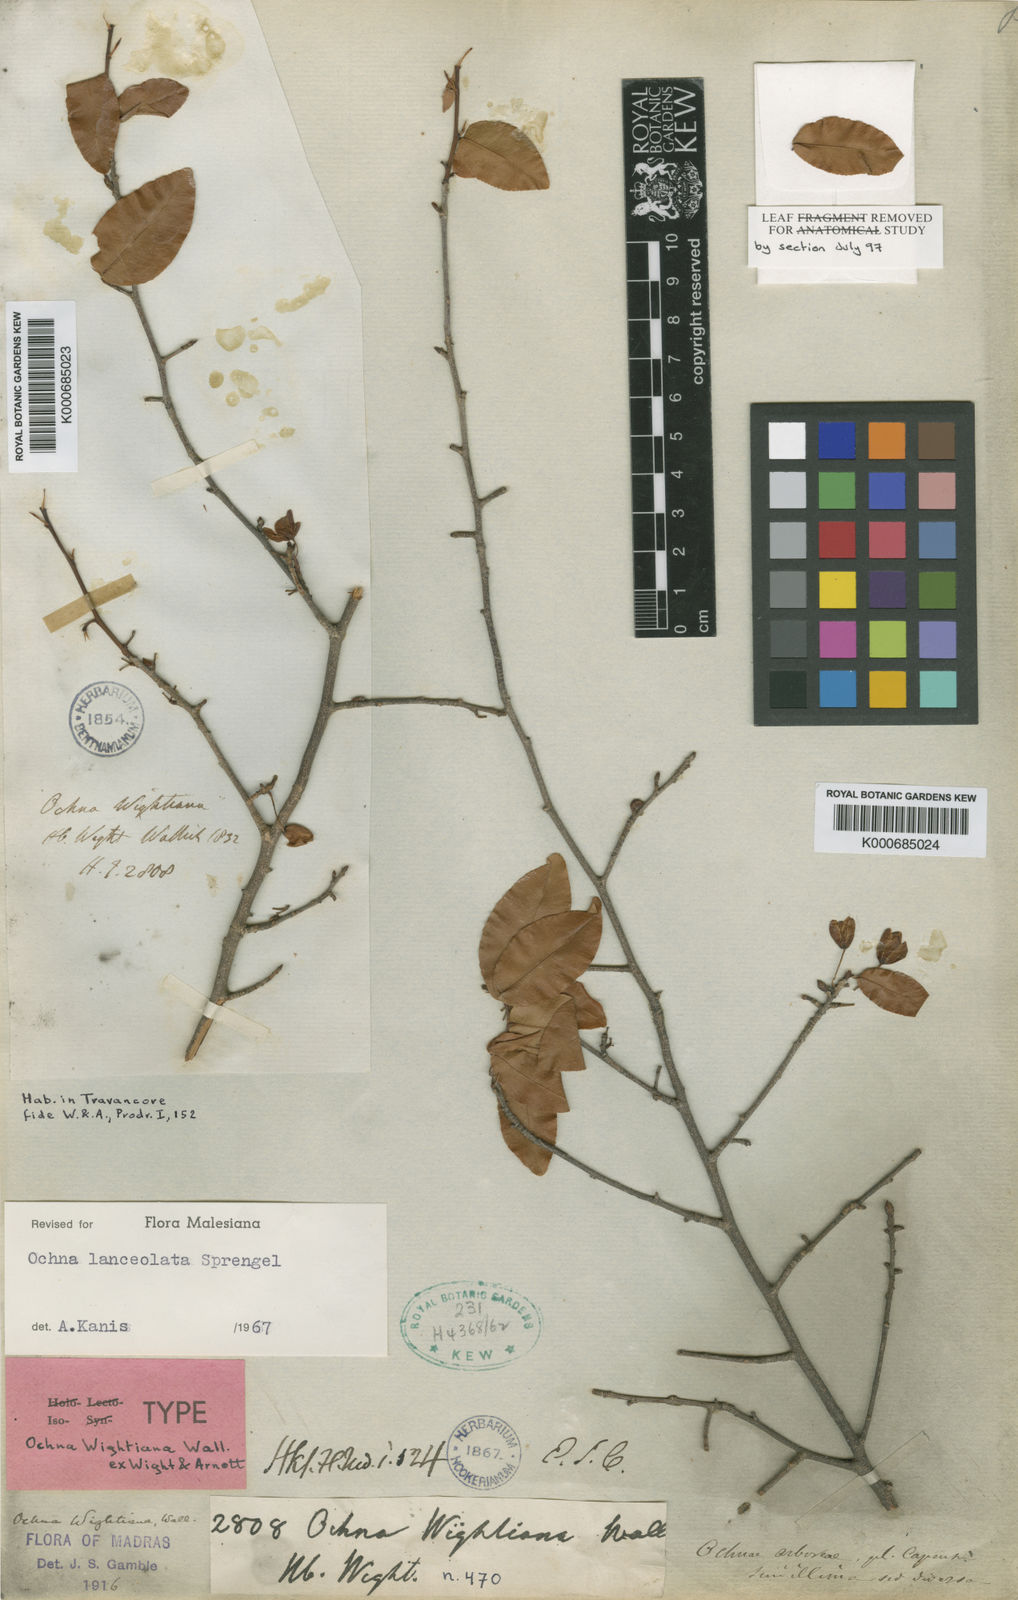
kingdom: Plantae
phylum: Tracheophyta
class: Magnoliopsida
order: Malpighiales
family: Ochnaceae
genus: Ochna
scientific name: Ochna lanceolata
